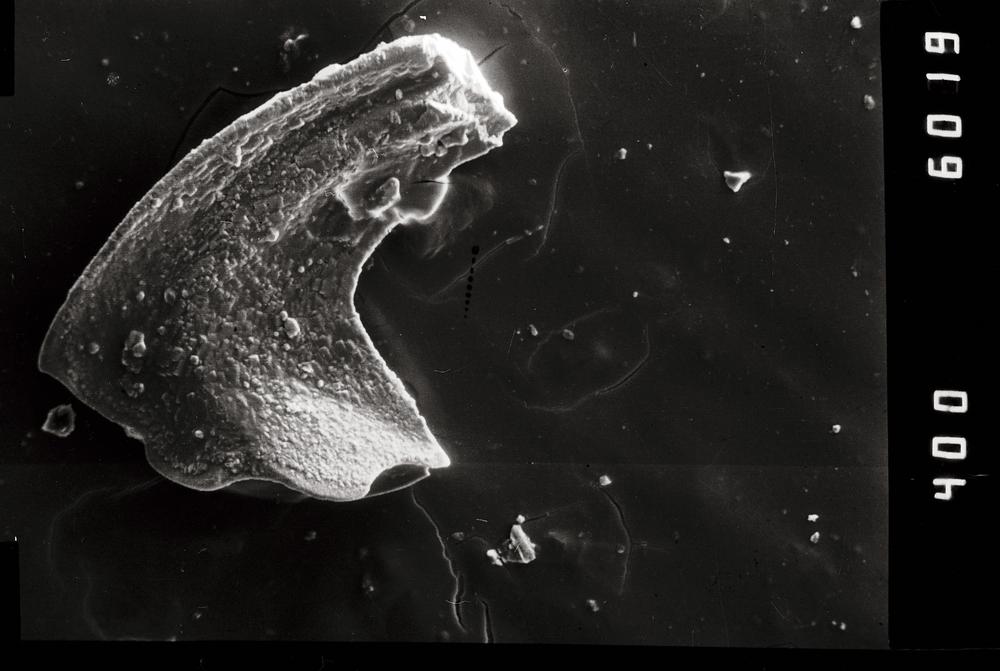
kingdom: Animalia
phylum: Chordata
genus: Paroistodus
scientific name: Paroistodus Drepanodus proteus
